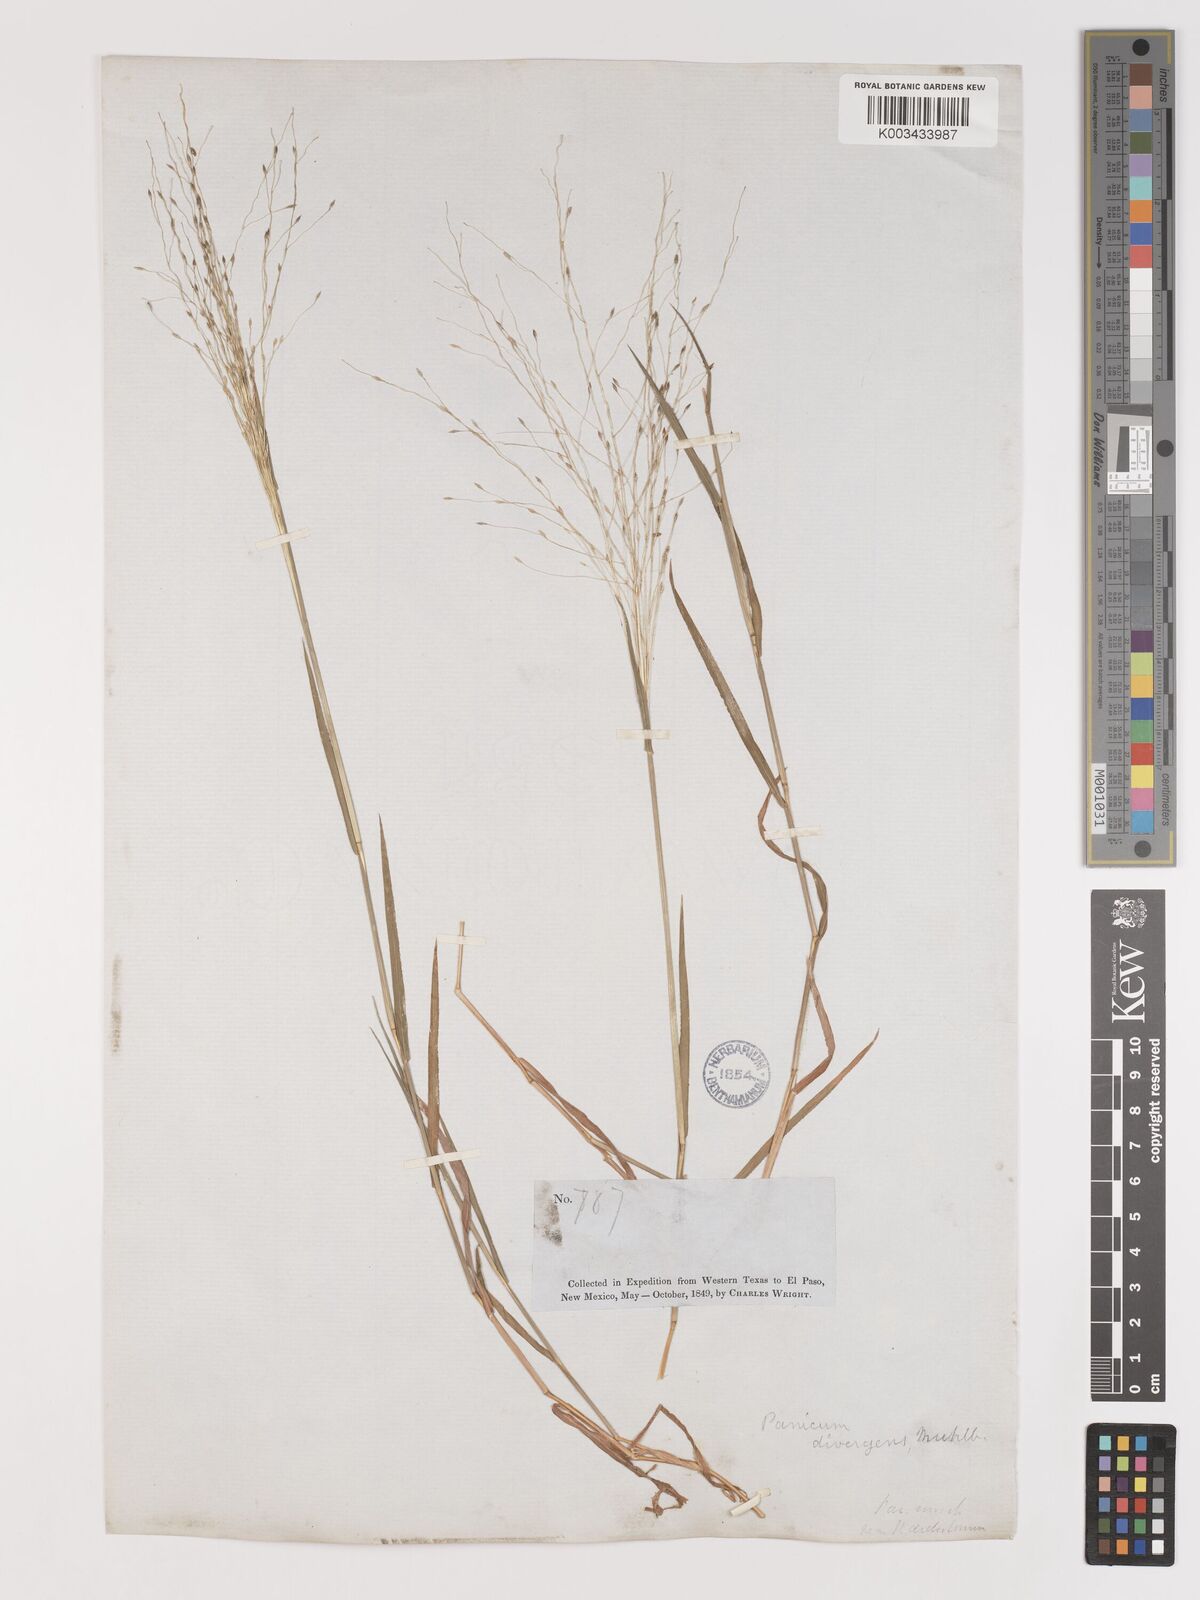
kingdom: Plantae
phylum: Tracheophyta
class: Liliopsida
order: Poales
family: Poaceae
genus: Digitaria
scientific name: Digitaria
